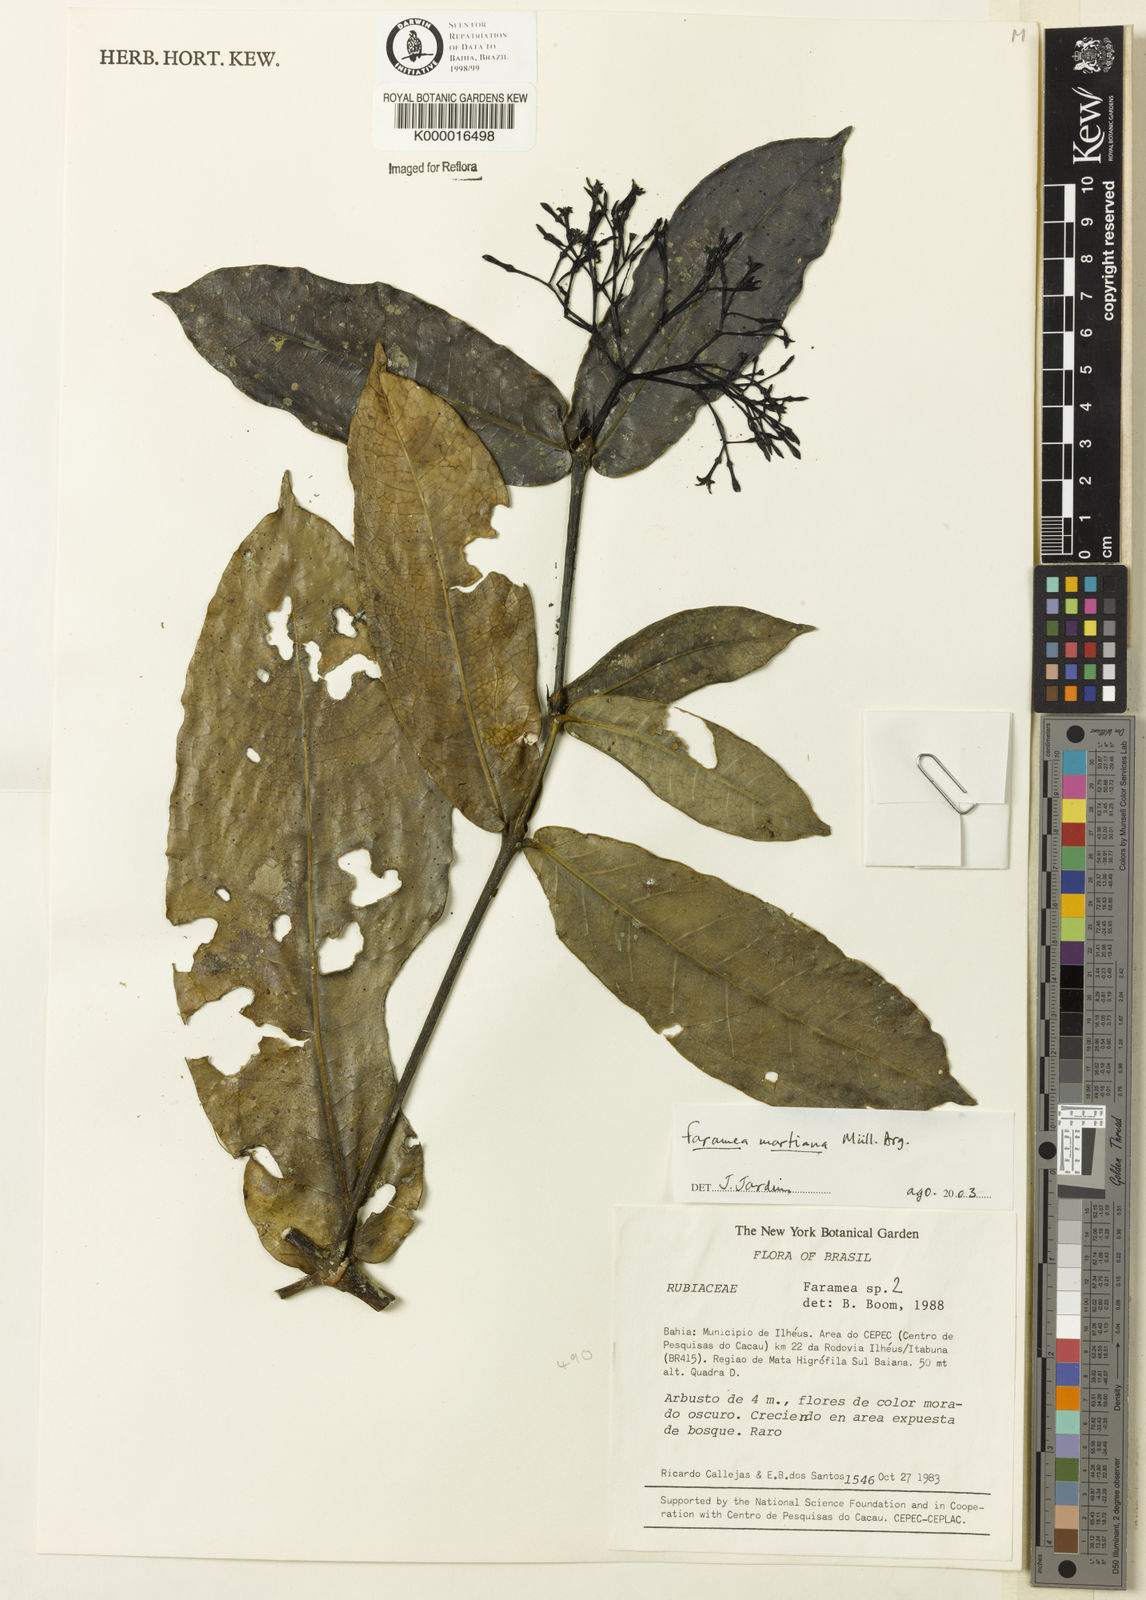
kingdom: Plantae
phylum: Tracheophyta
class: Magnoliopsida
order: Gentianales
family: Rubiaceae
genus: Faramea
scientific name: Faramea
